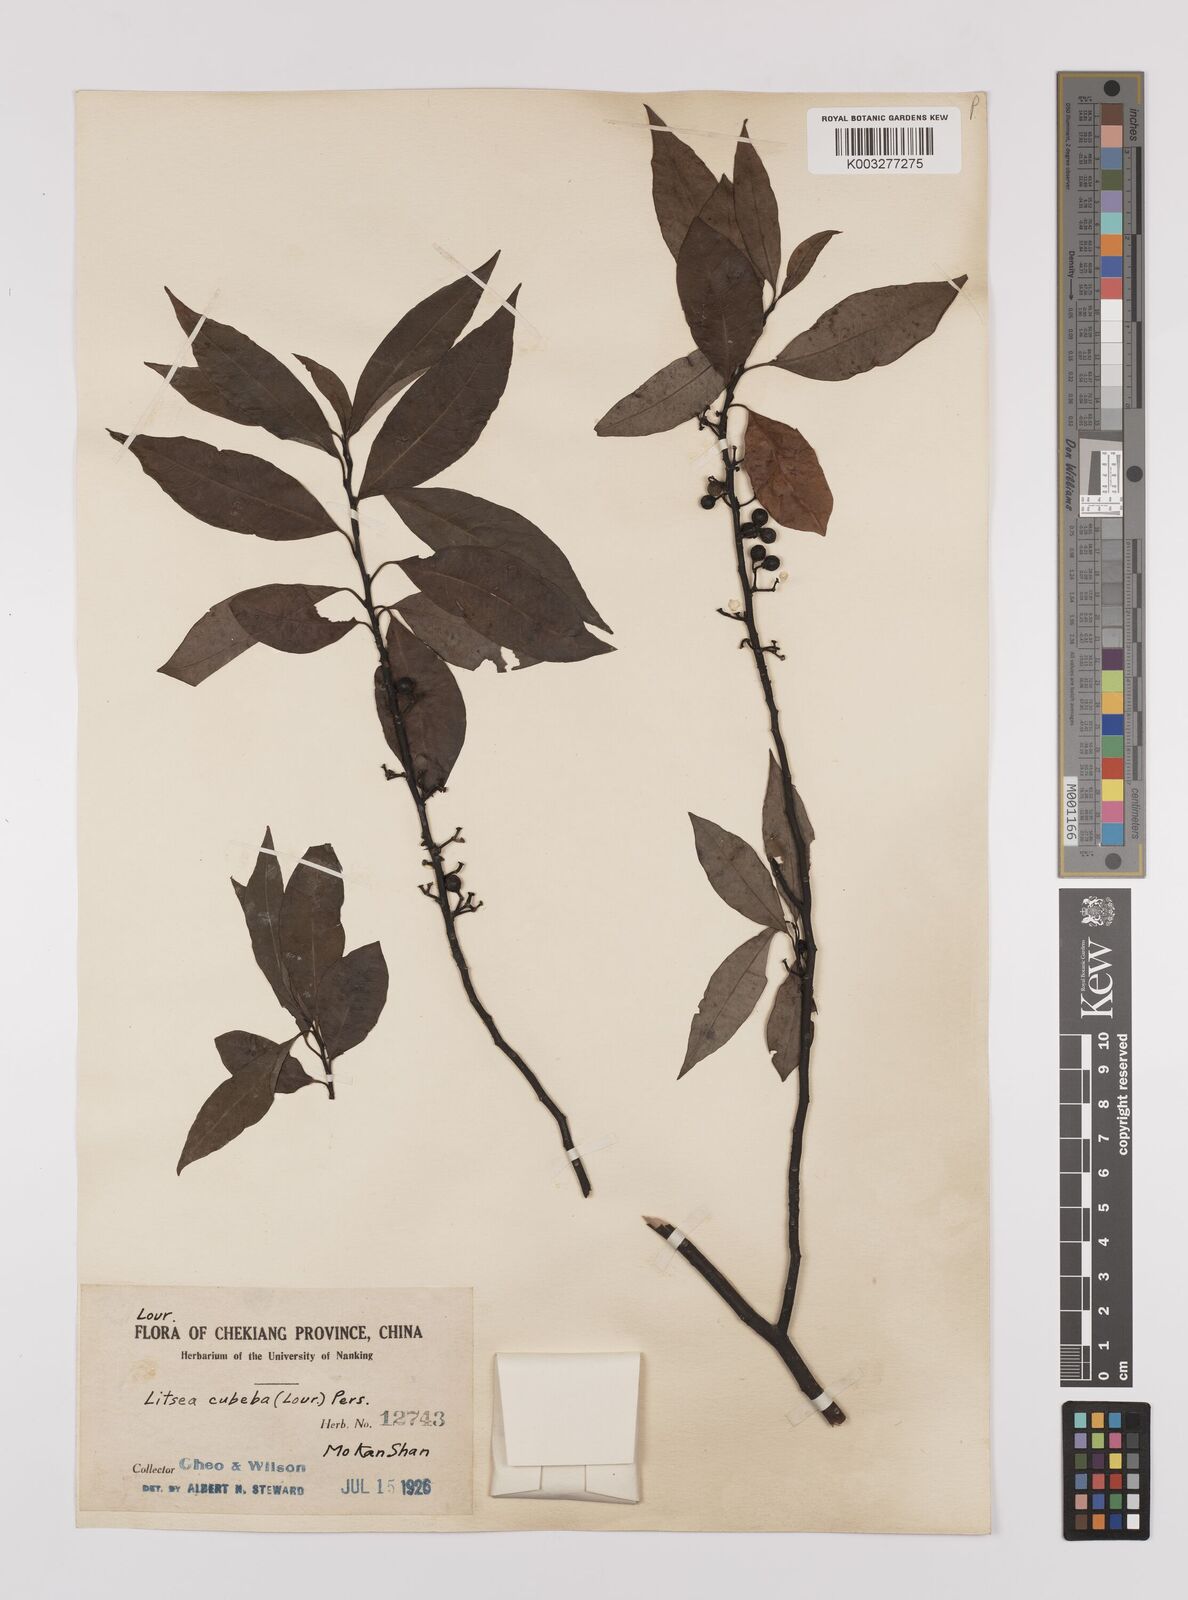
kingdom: Plantae
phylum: Tracheophyta
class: Magnoliopsida
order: Laurales
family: Lauraceae
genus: Litsea
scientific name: Litsea cubeba
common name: Mountain-pepper
